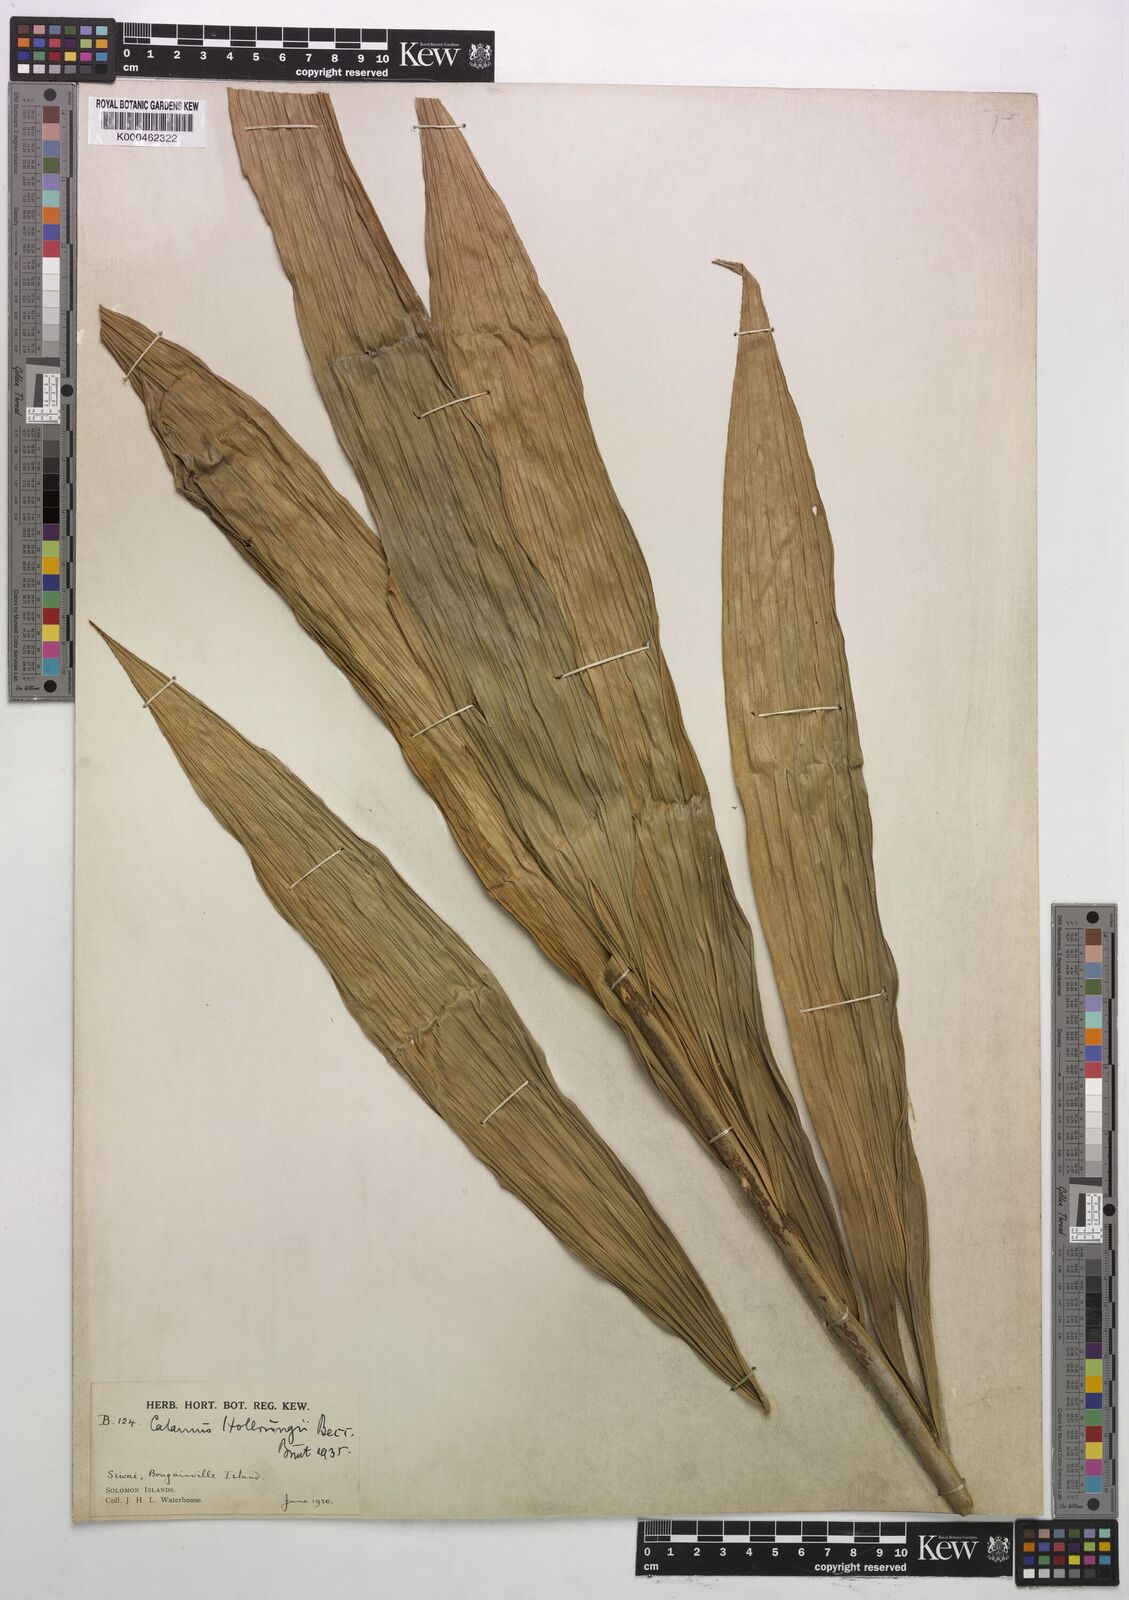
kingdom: Plantae
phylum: Tracheophyta
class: Liliopsida
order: Arecales
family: Arecaceae
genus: Calamus
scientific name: Calamus aruensis
